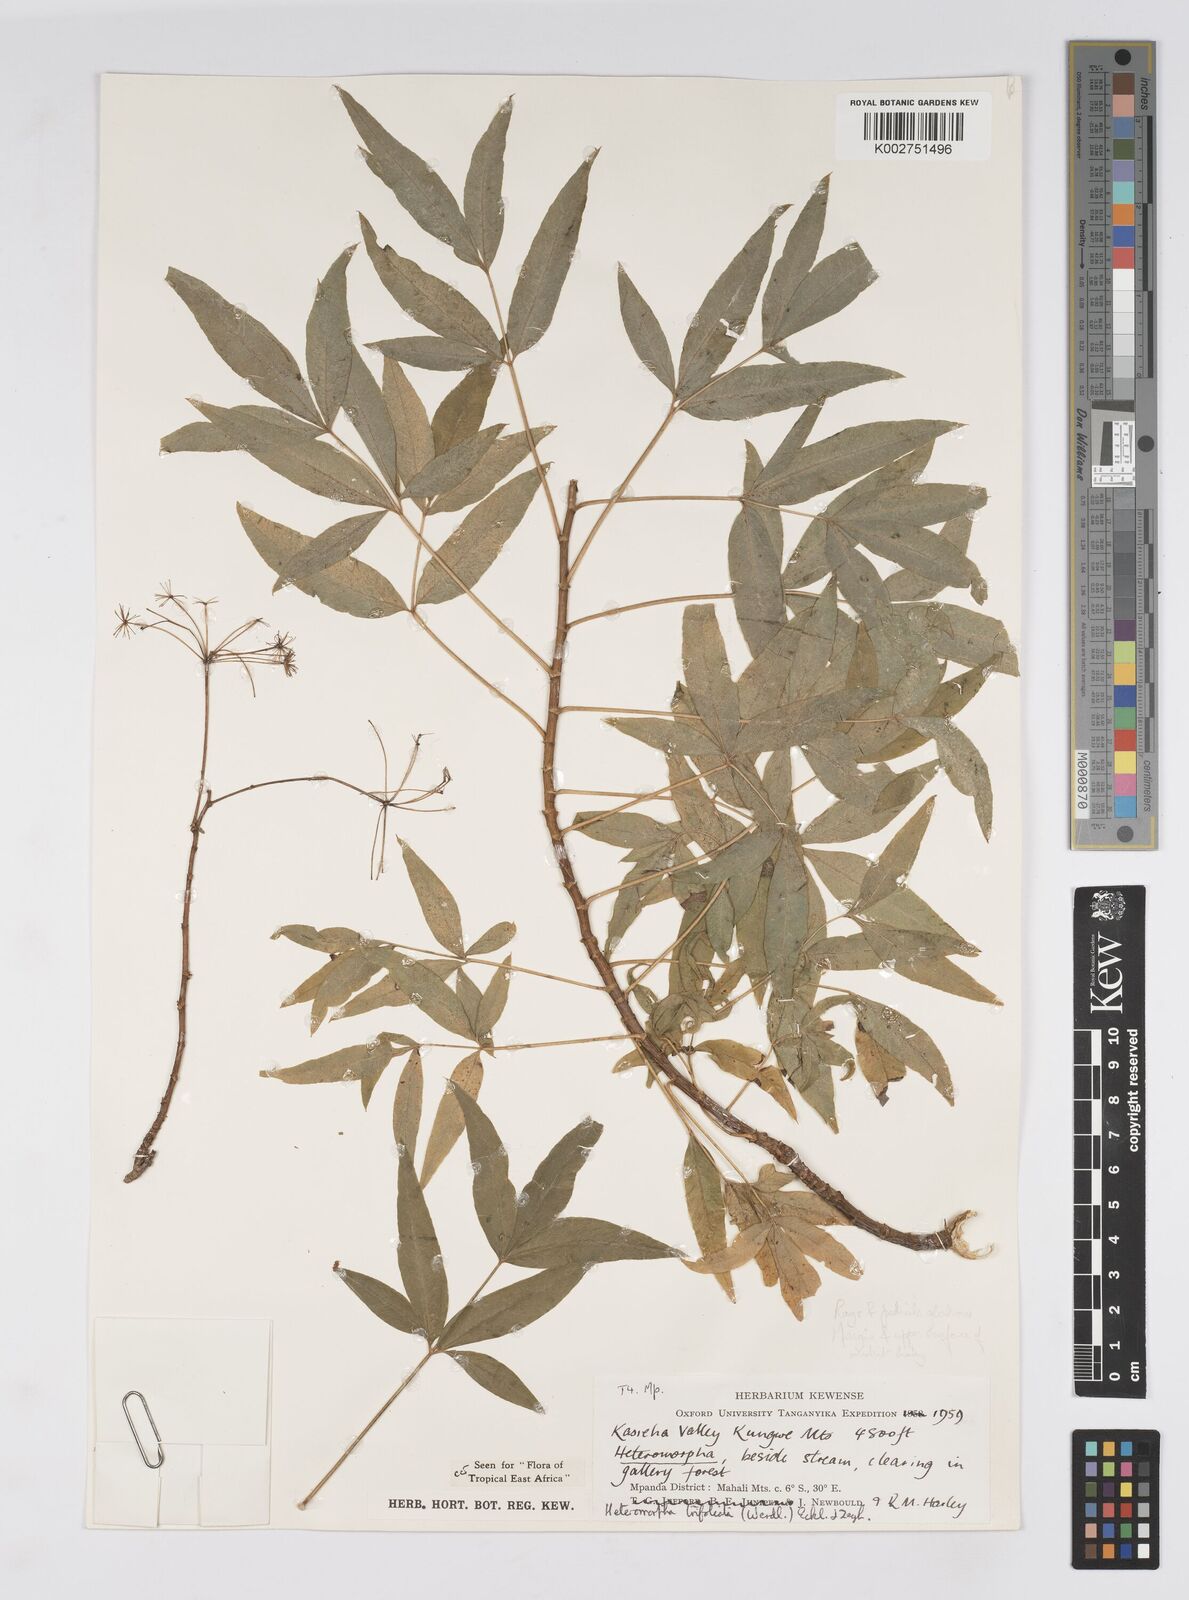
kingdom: Plantae
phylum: Tracheophyta
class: Magnoliopsida
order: Apiales
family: Apiaceae
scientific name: Apiaceae
